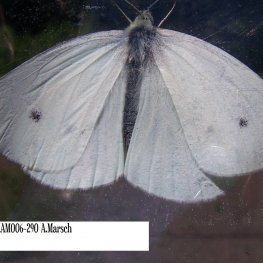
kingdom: Animalia
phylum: Arthropoda
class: Insecta
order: Lepidoptera
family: Pieridae
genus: Pieris
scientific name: Pieris rapae
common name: Cabbage White
